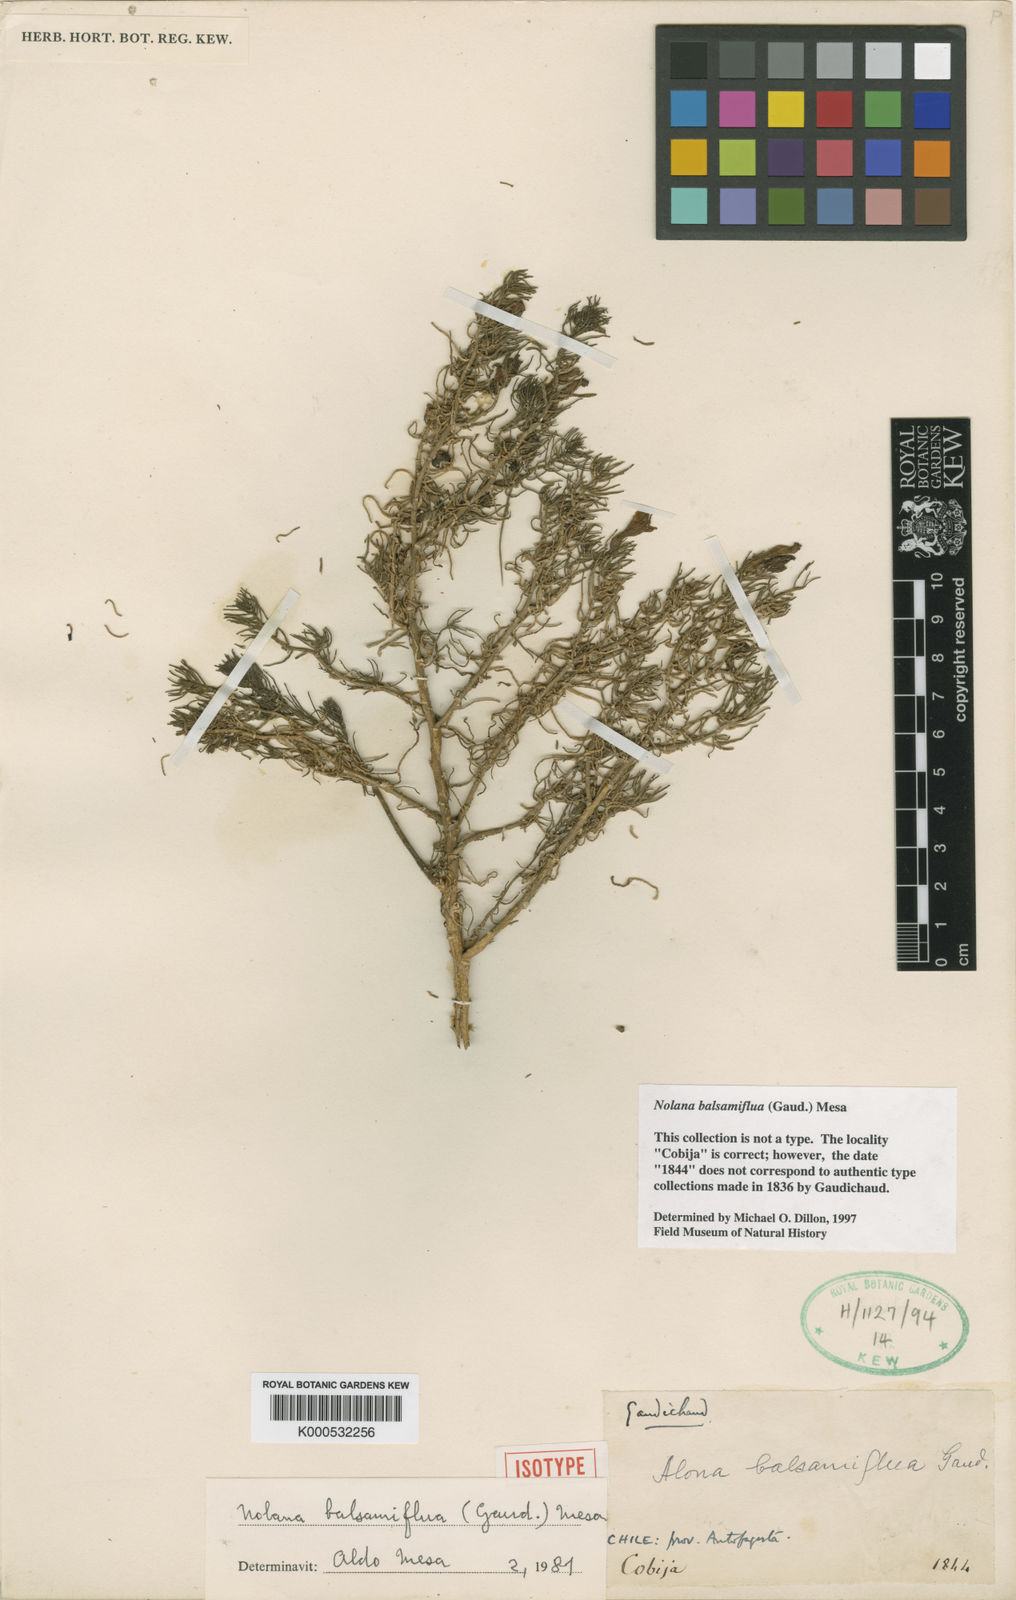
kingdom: Plantae
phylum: Tracheophyta
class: Magnoliopsida
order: Solanales
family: Solanaceae
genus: Nolana
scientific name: Nolana balsamiflua
